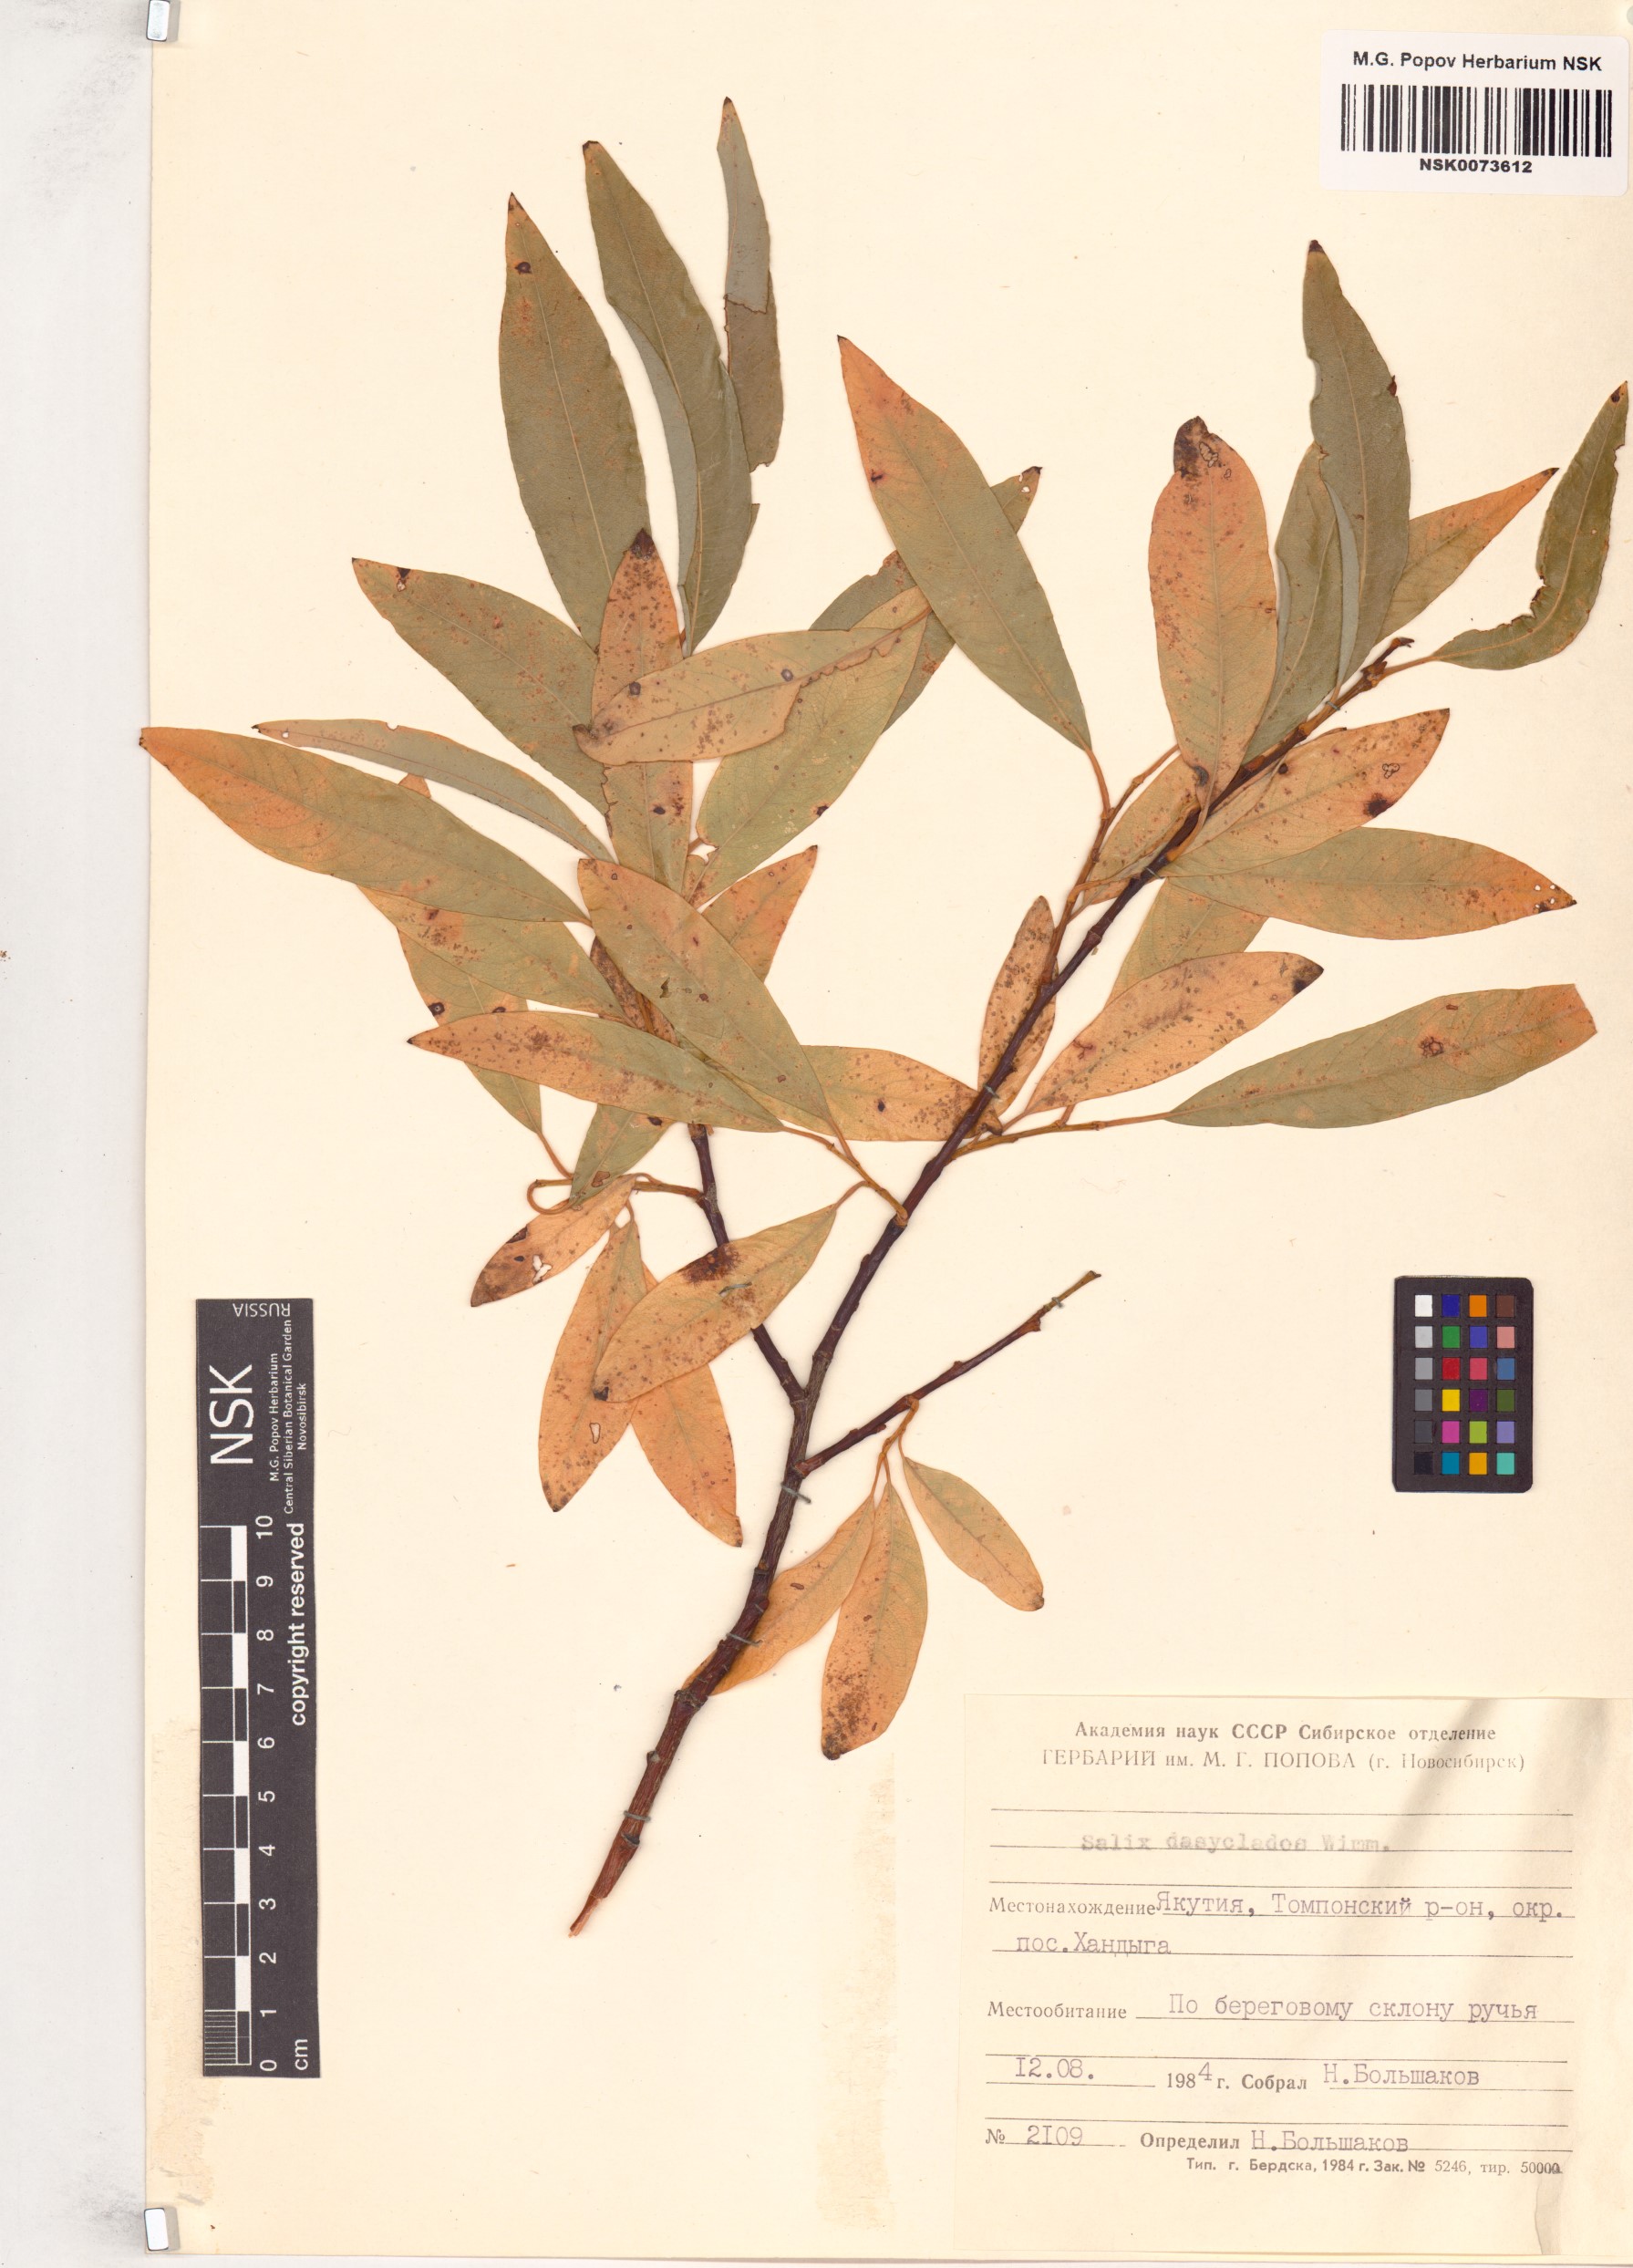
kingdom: Plantae
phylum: Tracheophyta
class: Magnoliopsida
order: Malpighiales
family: Salicaceae
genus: Salix
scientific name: Salix gmelinii
